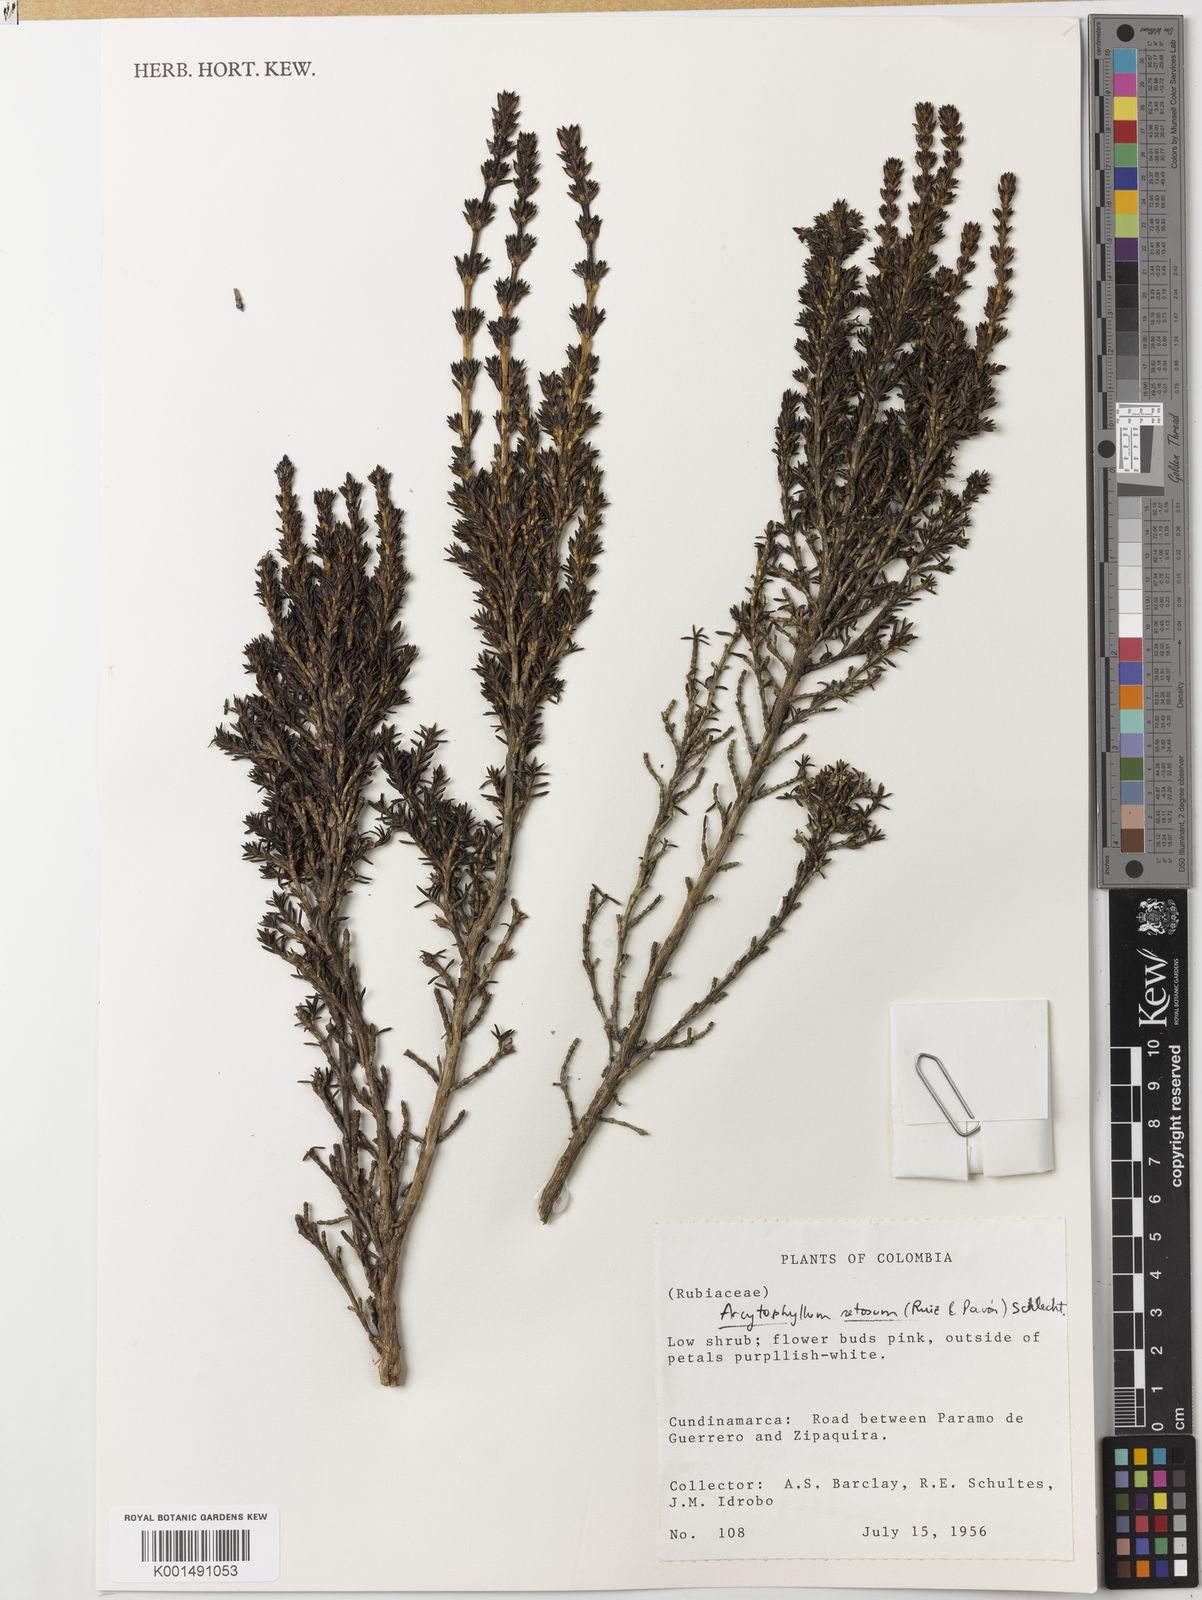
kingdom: Plantae
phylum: Tracheophyta
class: Magnoliopsida
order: Gentianales
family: Rubiaceae
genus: Arcytophyllum
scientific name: Arcytophyllum setosum
